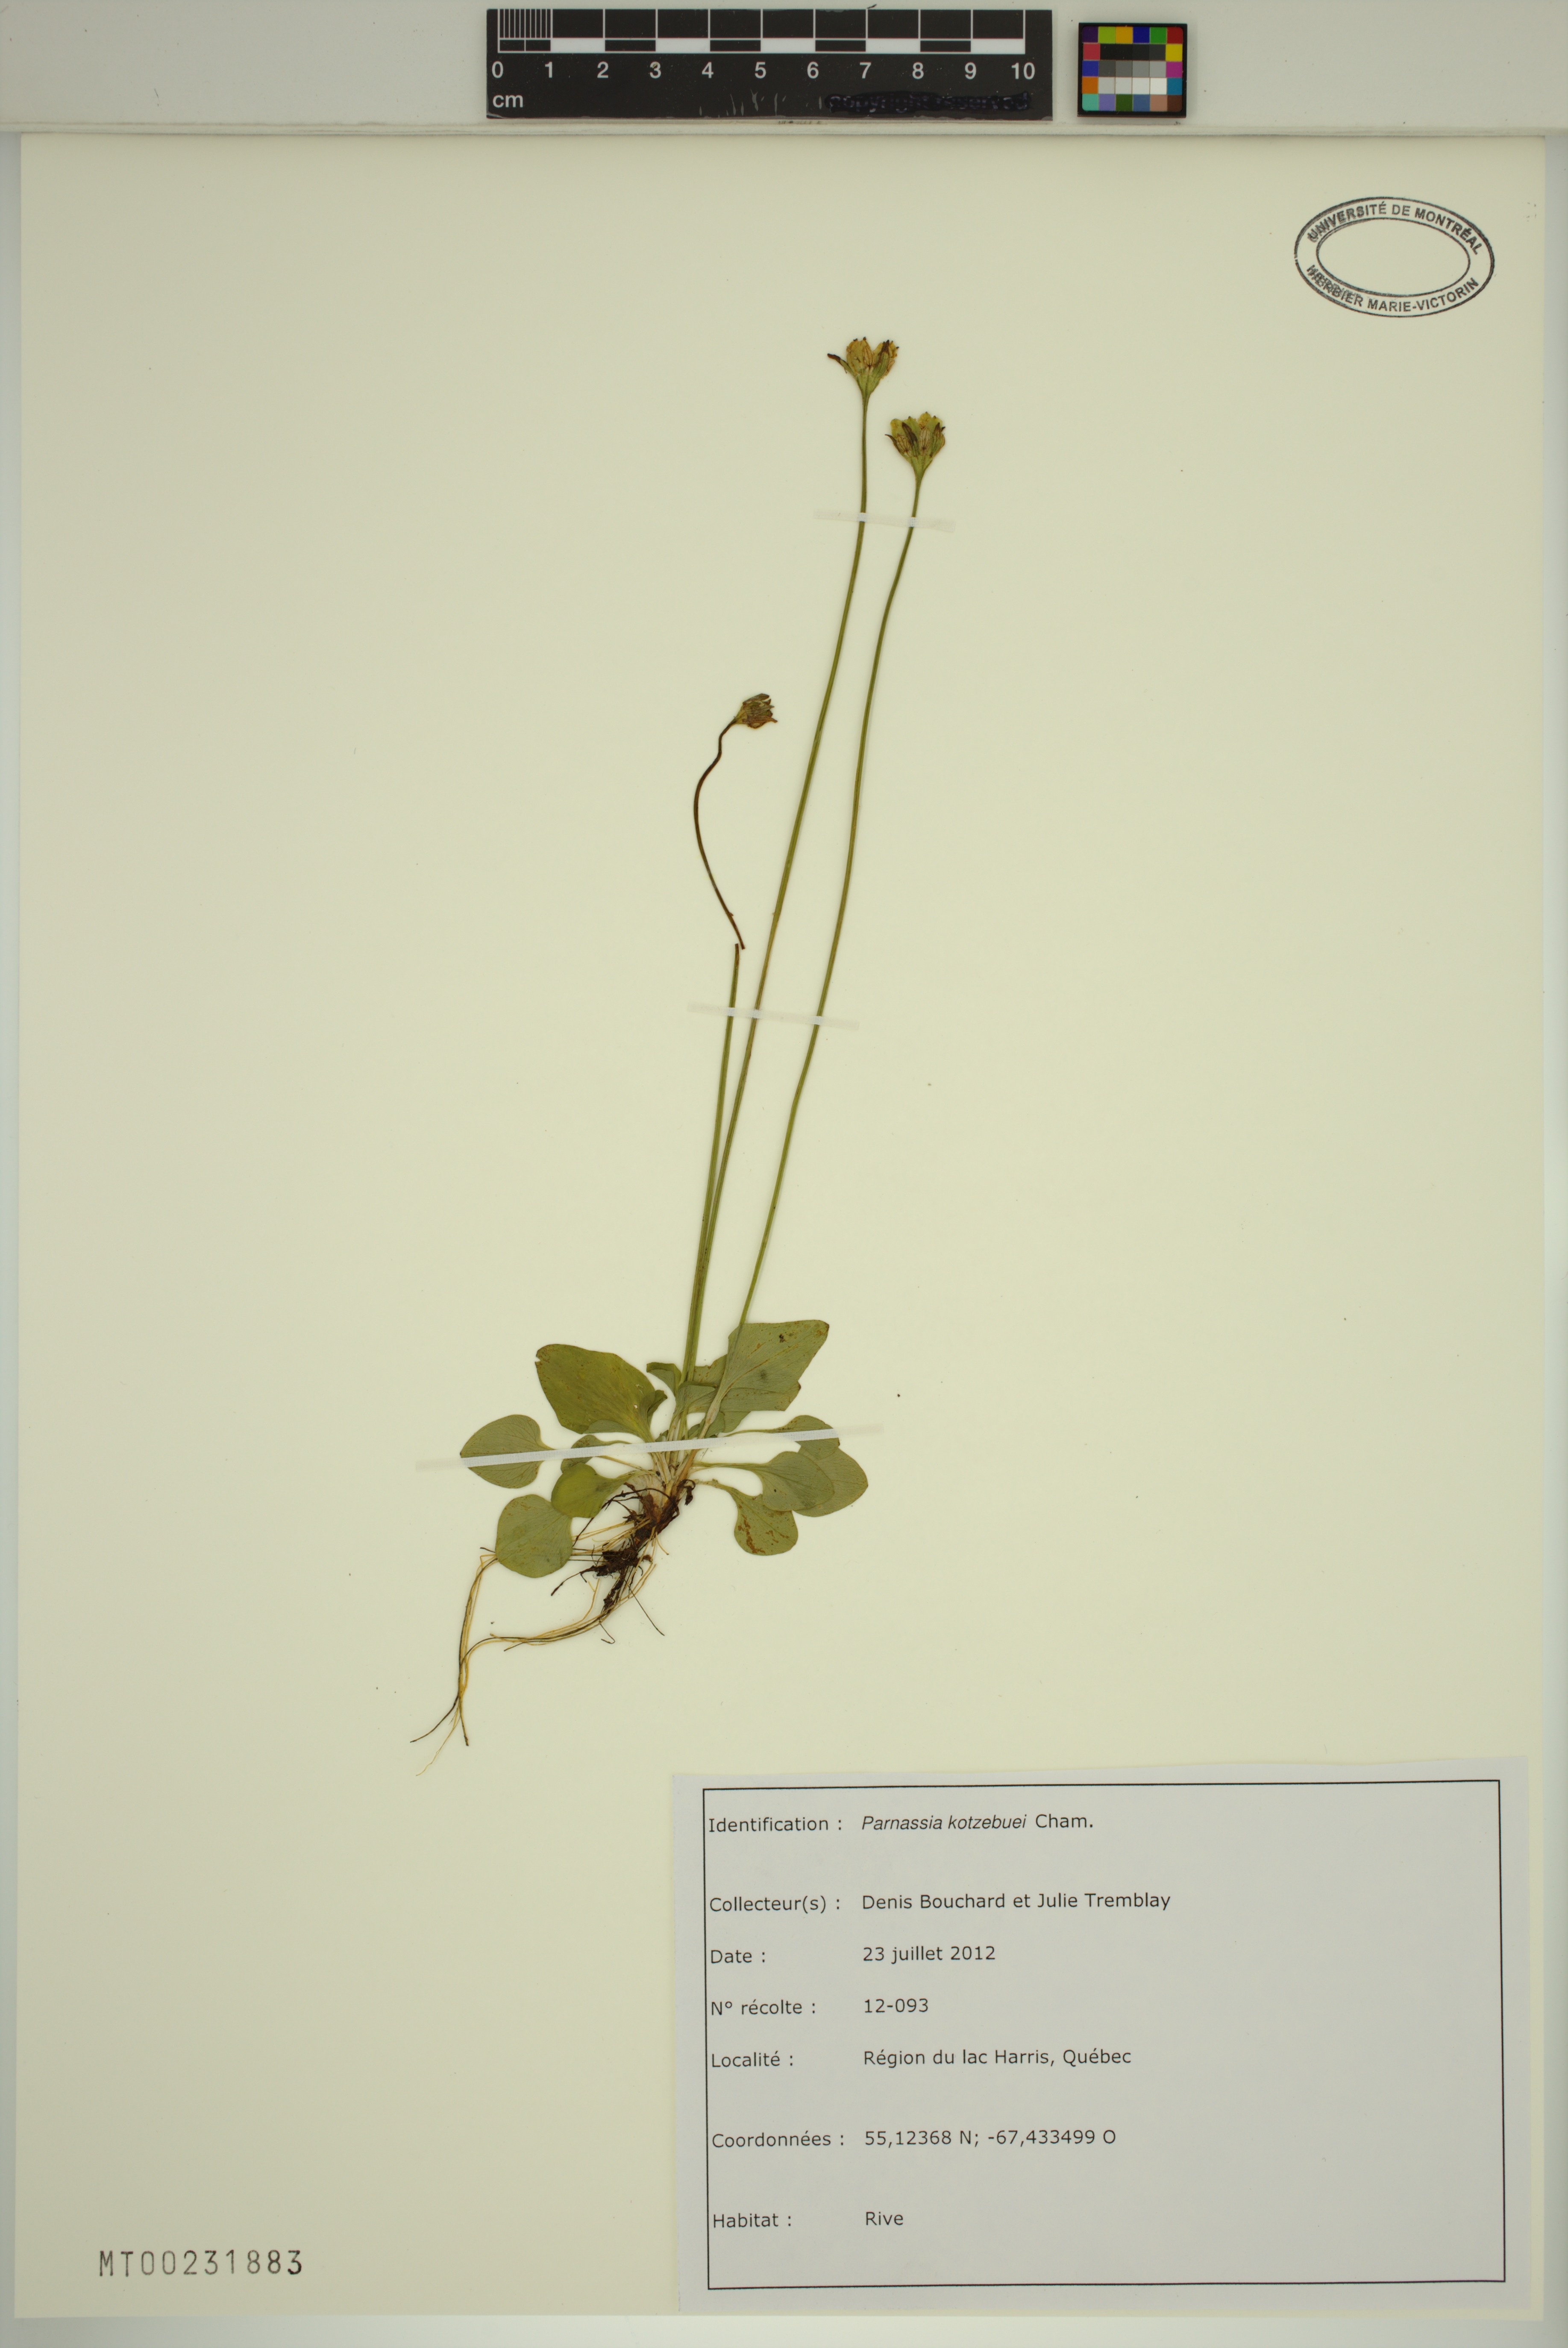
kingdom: Plantae
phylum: Tracheophyta
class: Magnoliopsida
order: Celastrales
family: Parnassiaceae
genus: Parnassia
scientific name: Parnassia kotzebuei
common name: Kotzebue's grass-of-parnassus
